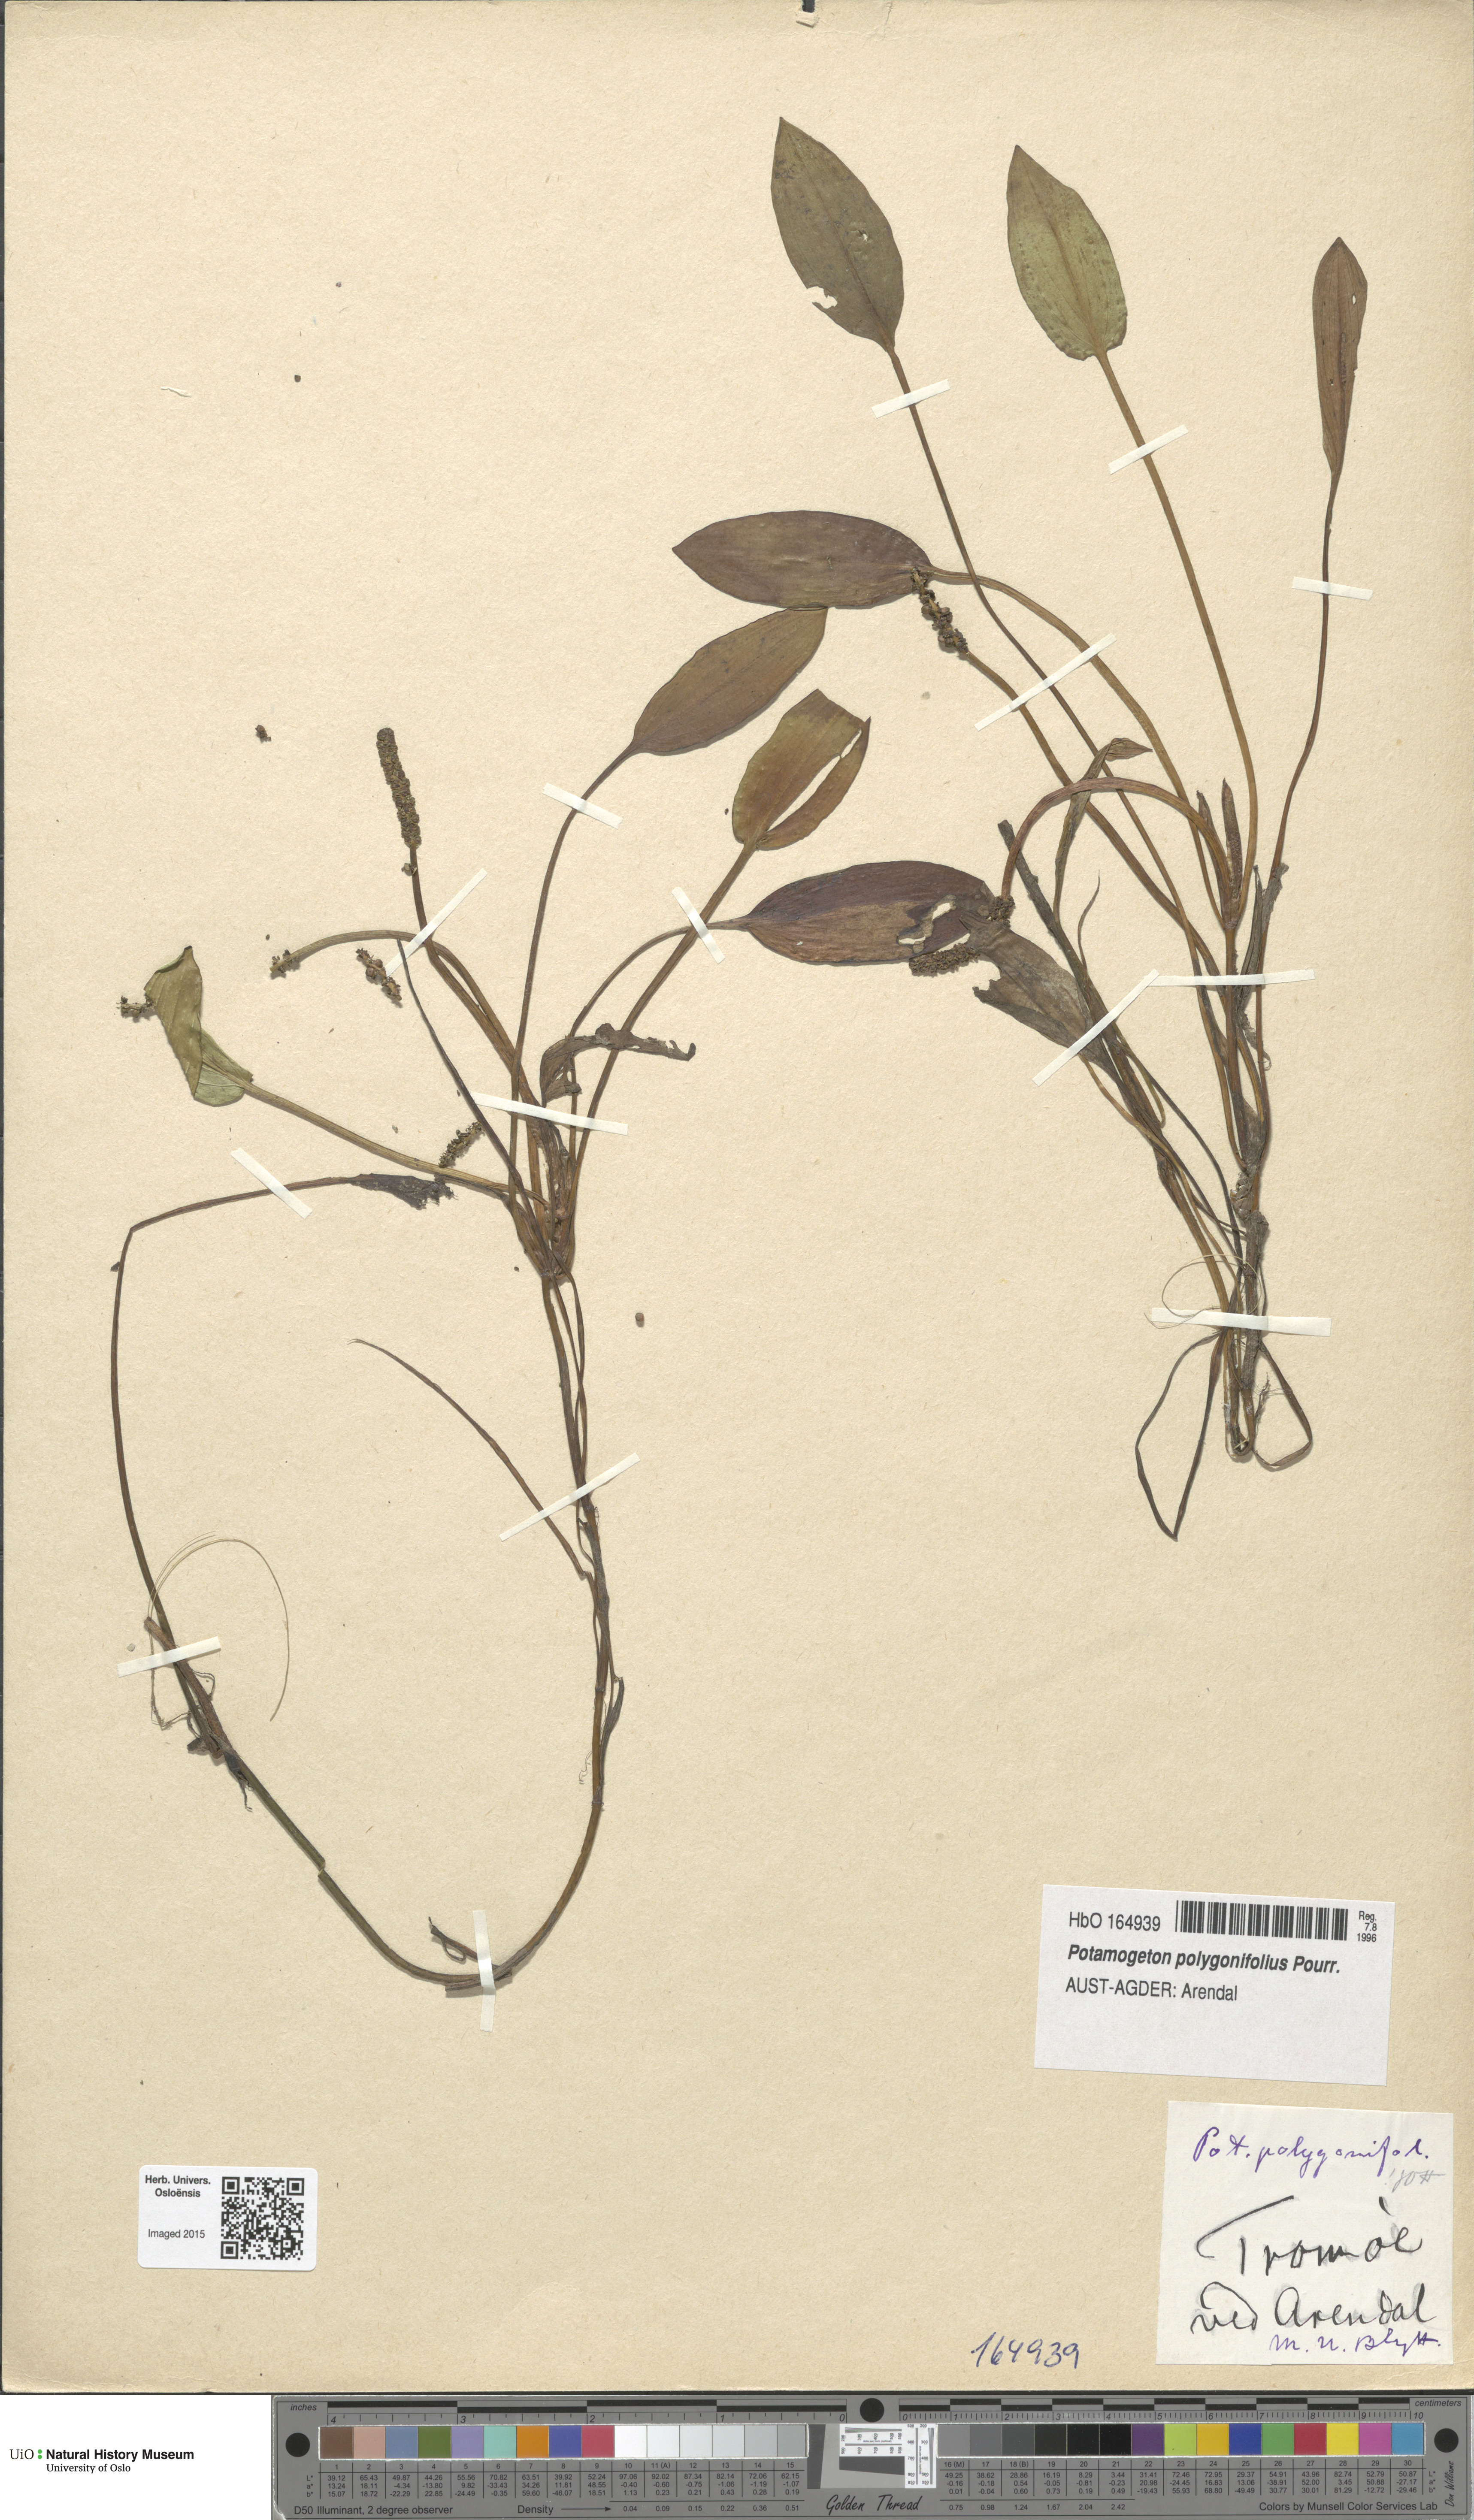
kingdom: Plantae
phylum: Tracheophyta
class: Liliopsida
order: Alismatales
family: Potamogetonaceae
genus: Potamogeton
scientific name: Potamogeton polygonifolius
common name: Bog pondweed
